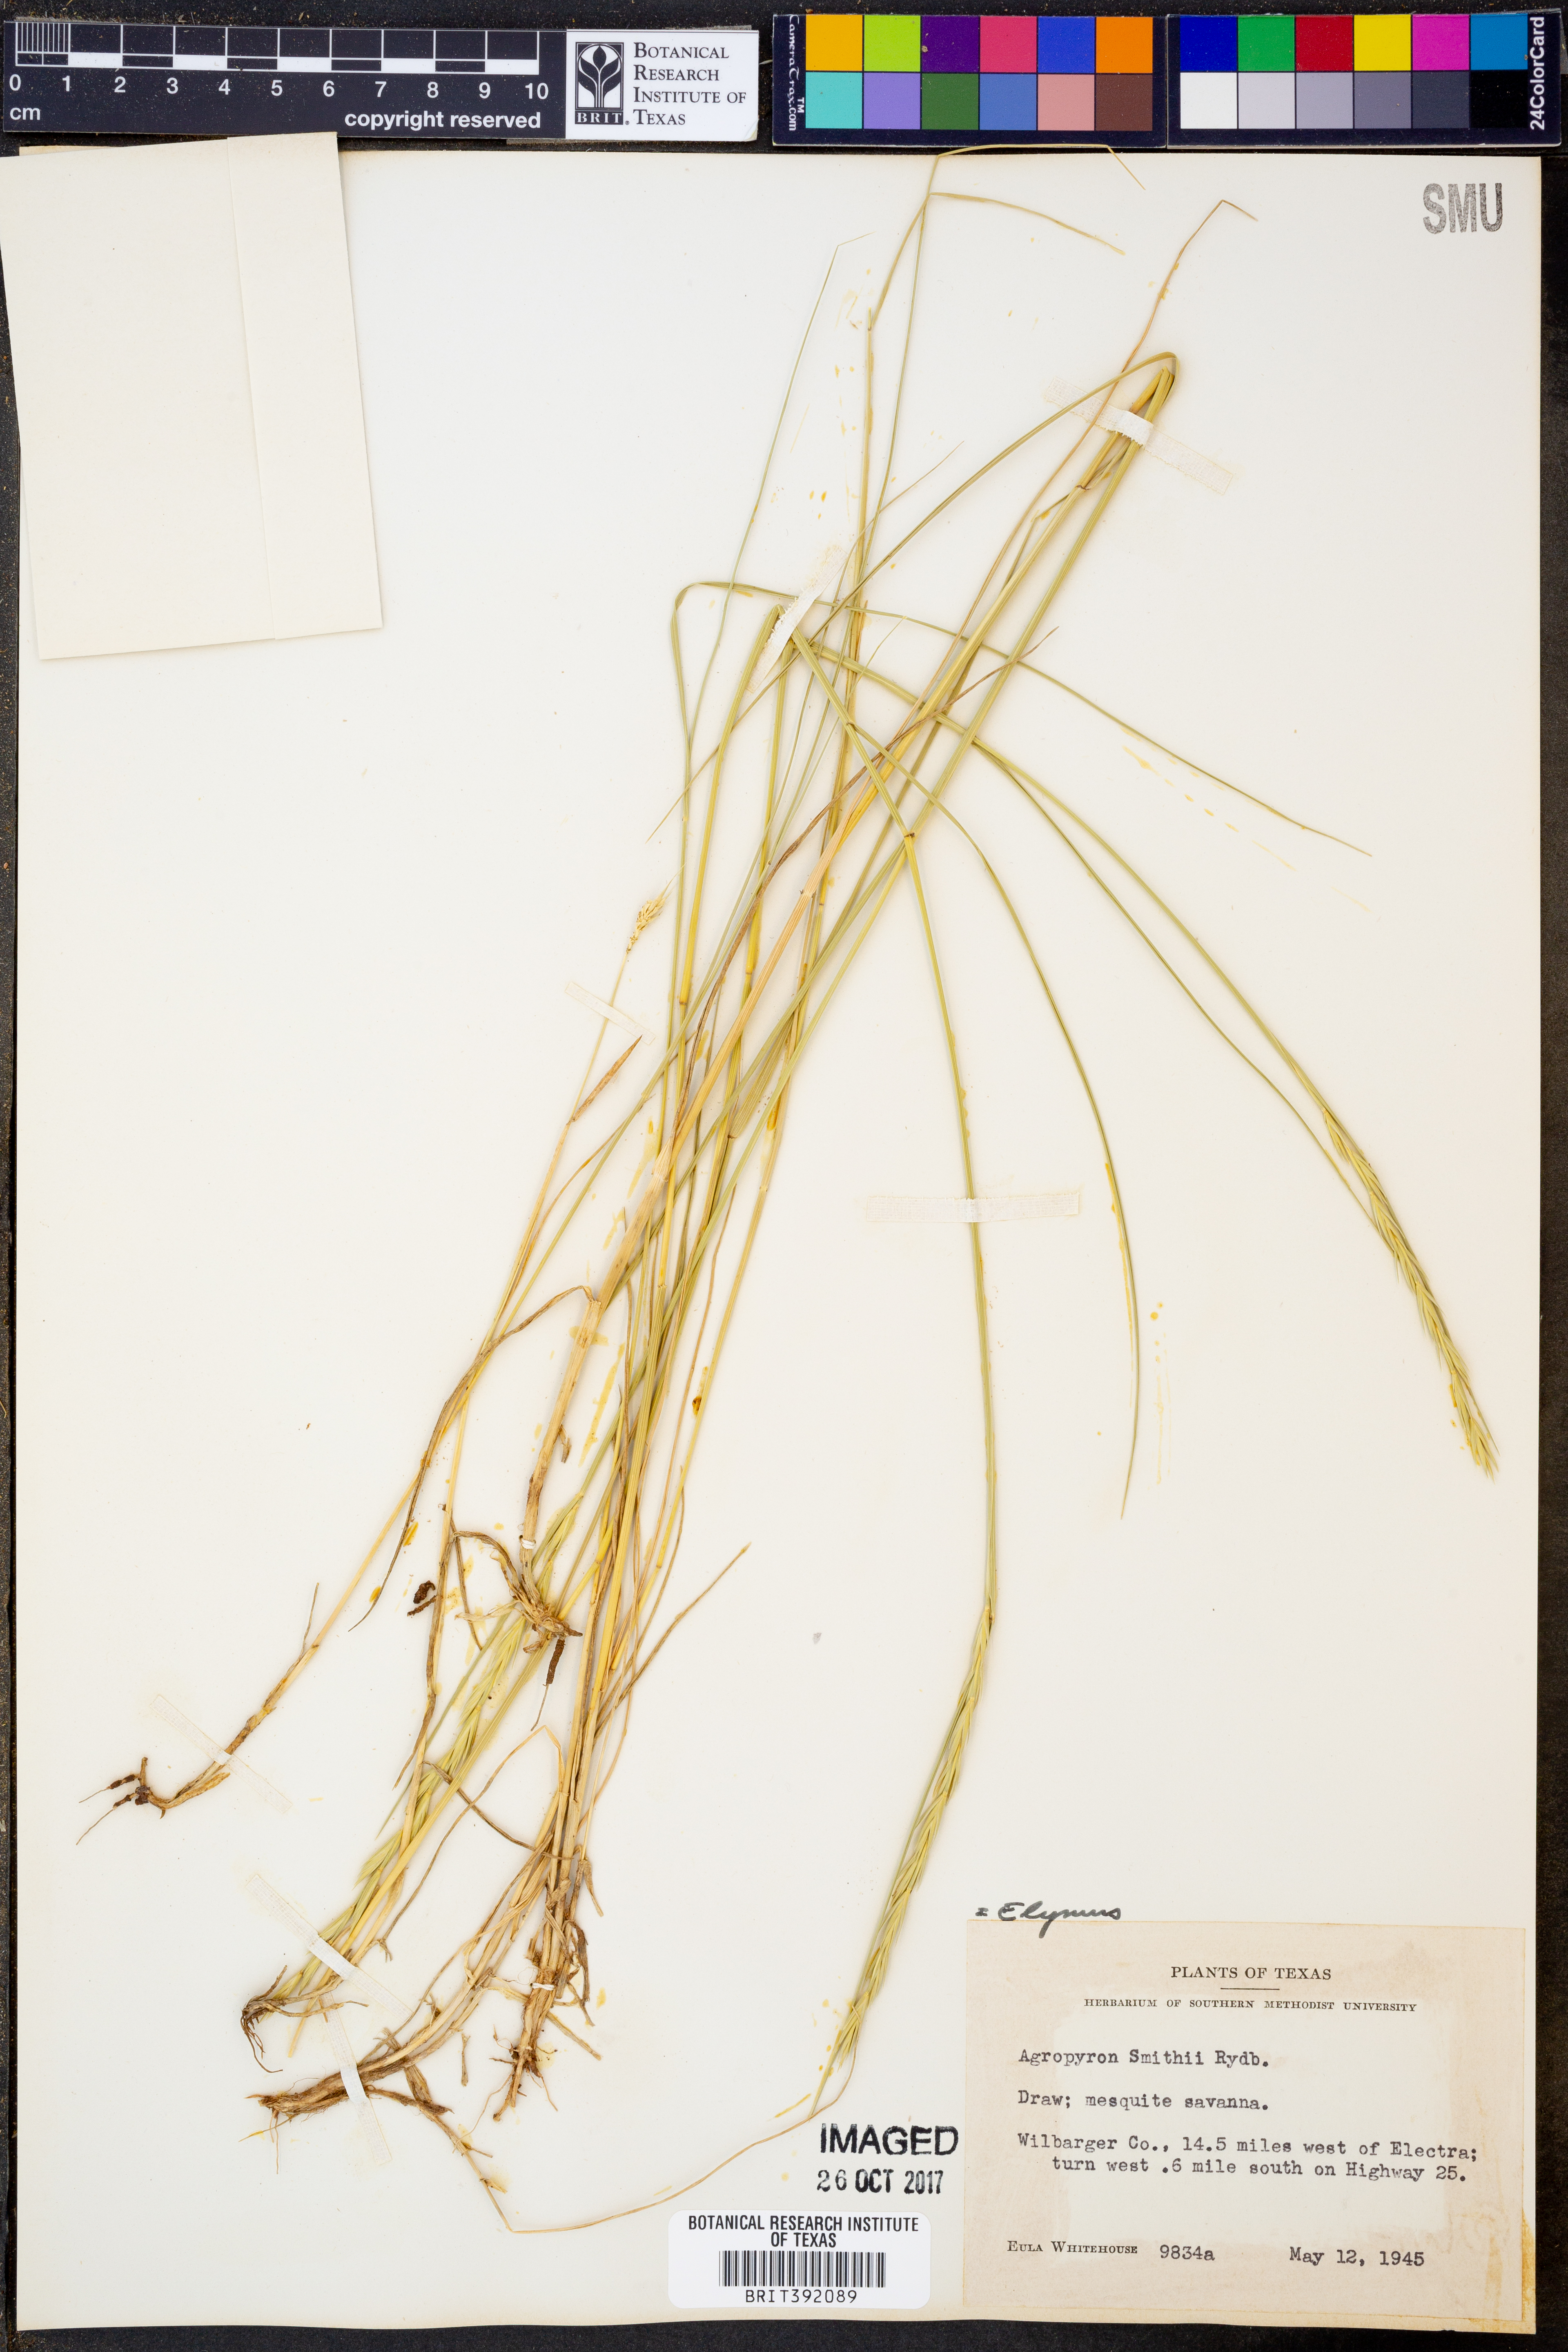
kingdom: Plantae
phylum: Tracheophyta
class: Liliopsida
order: Poales
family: Poaceae
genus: Elymus
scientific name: Elymus smithii
